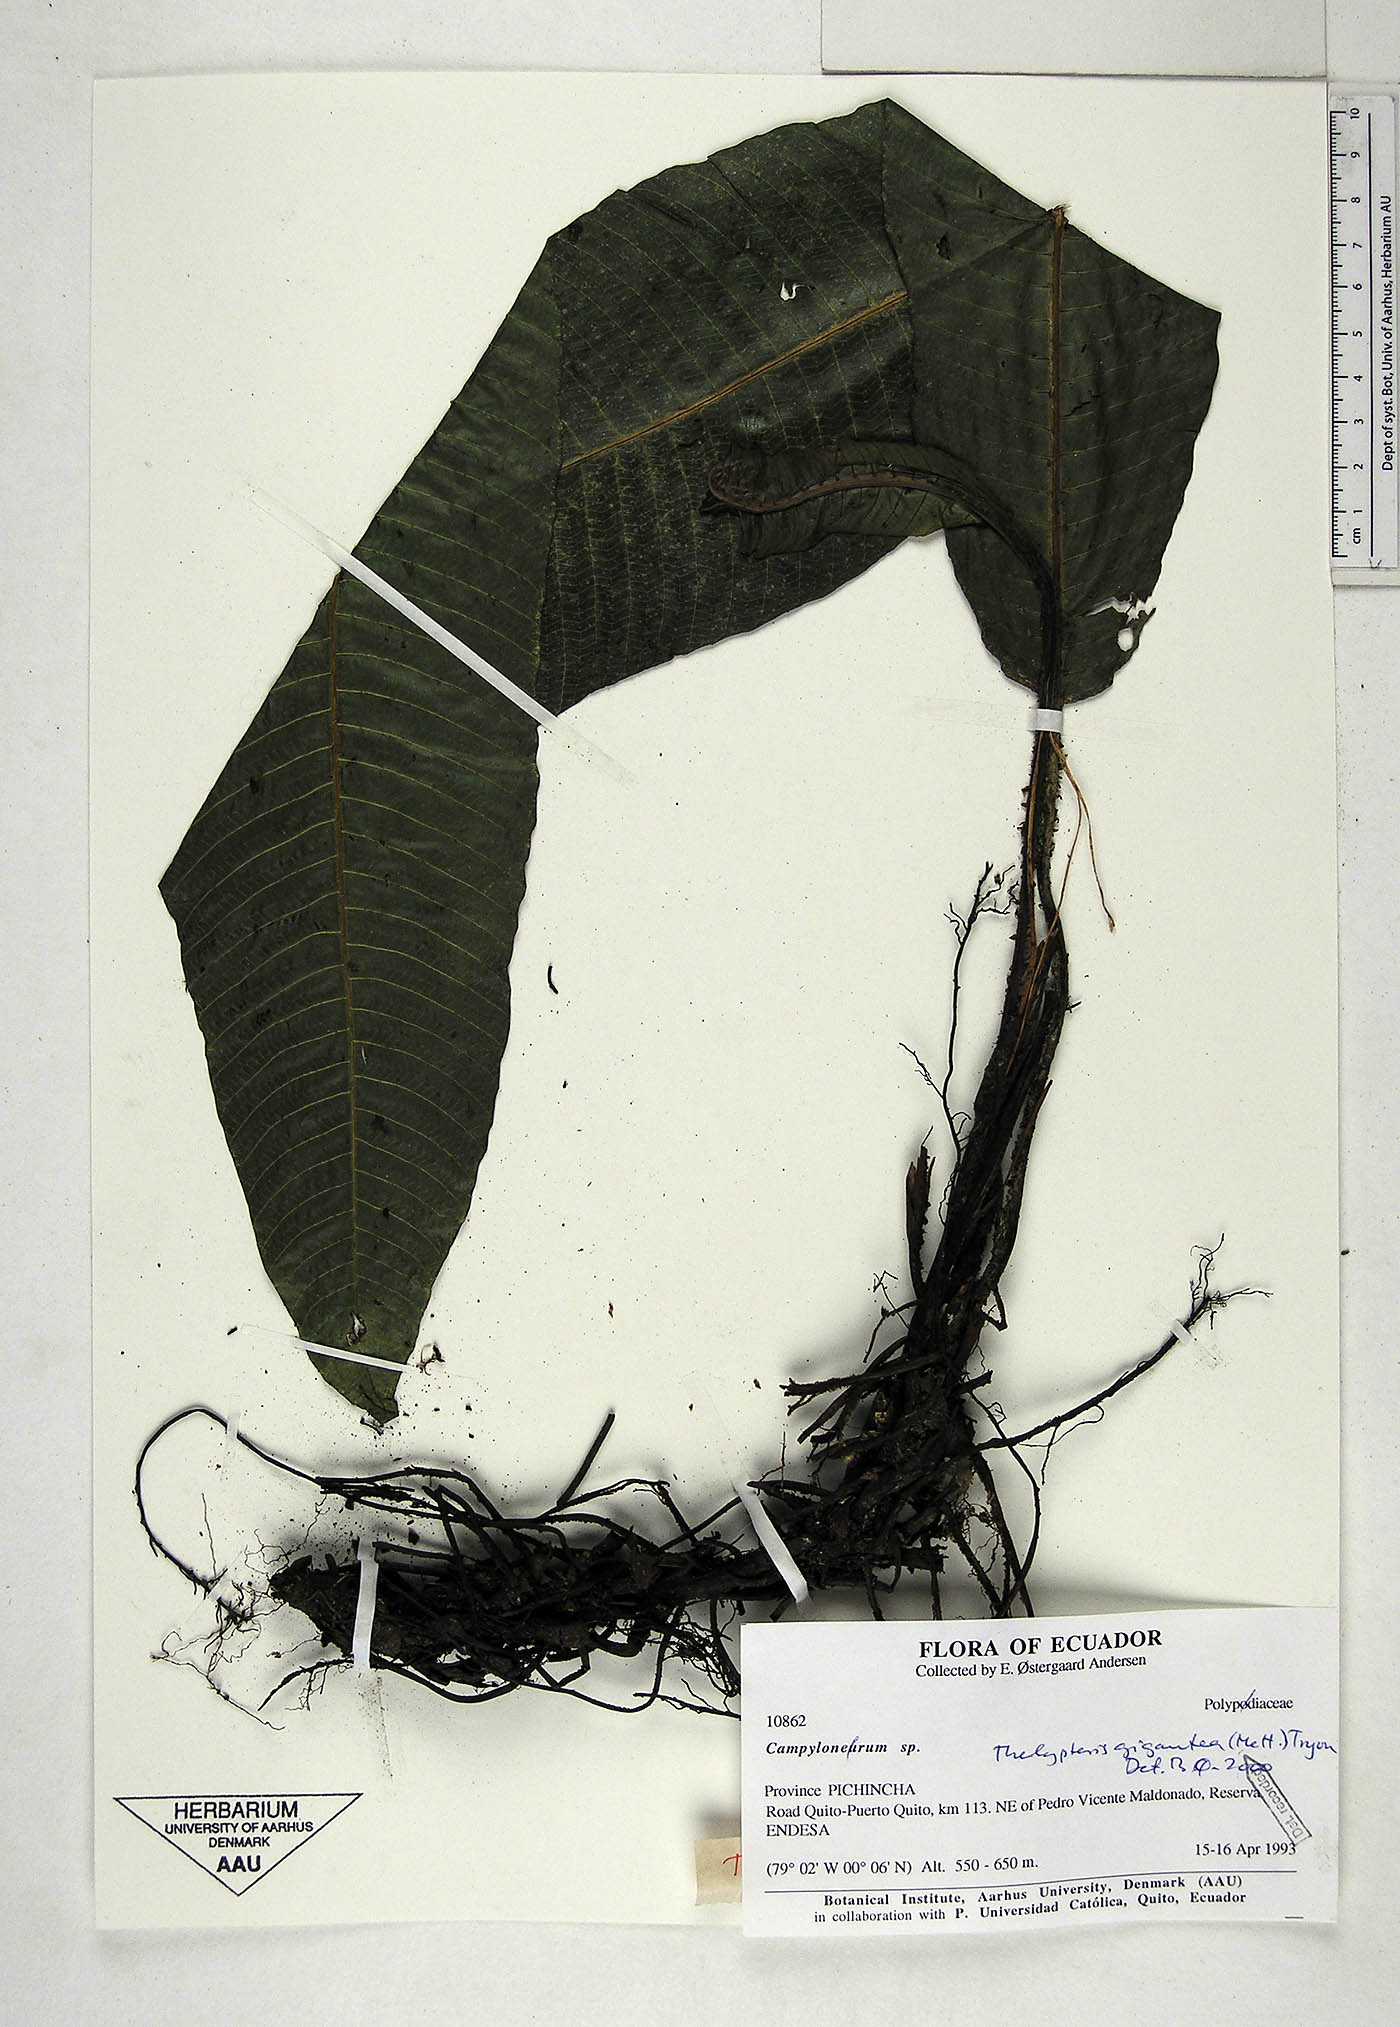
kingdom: Plantae
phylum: Tracheophyta
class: Polypodiopsida
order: Polypodiales
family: Thelypteridaceae
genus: Meniscium
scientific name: Meniscium giganteum
